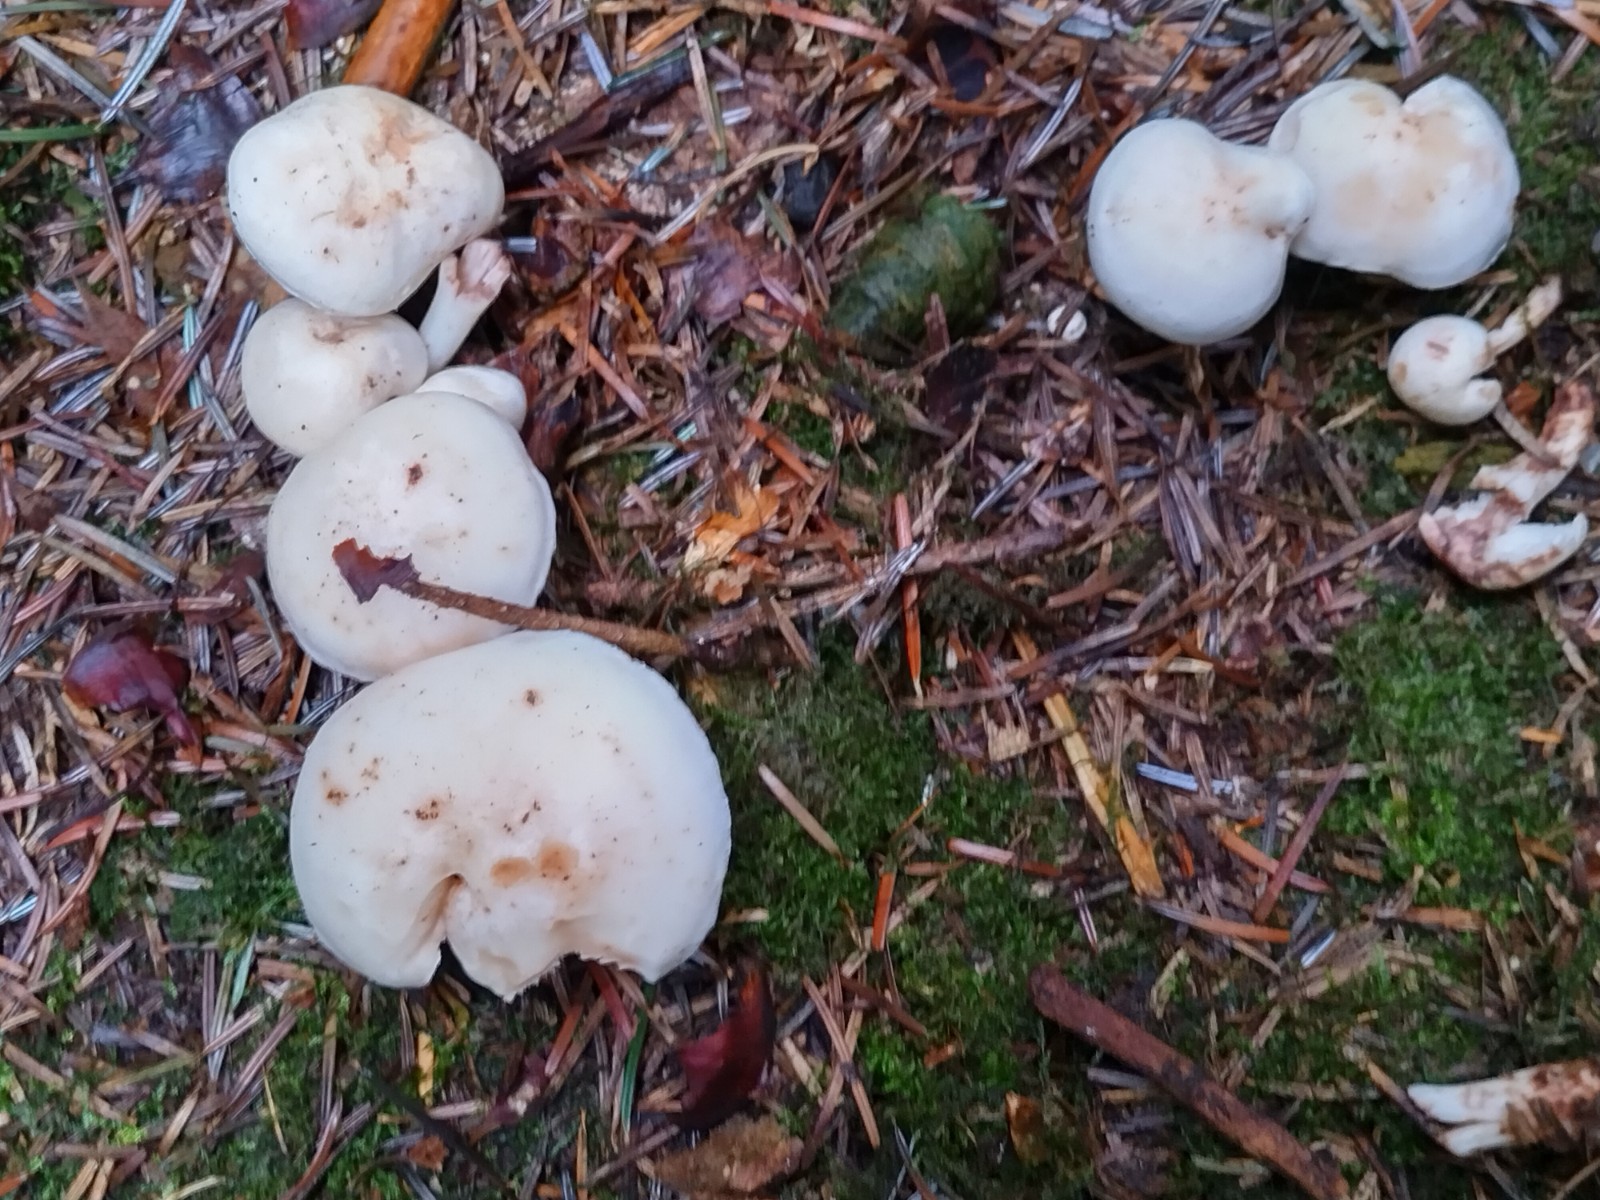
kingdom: Fungi
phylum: Basidiomycota
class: Agaricomycetes
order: Agaricales
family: Omphalotaceae
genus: Rhodocollybia
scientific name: Rhodocollybia maculata
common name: plettet fladhat
